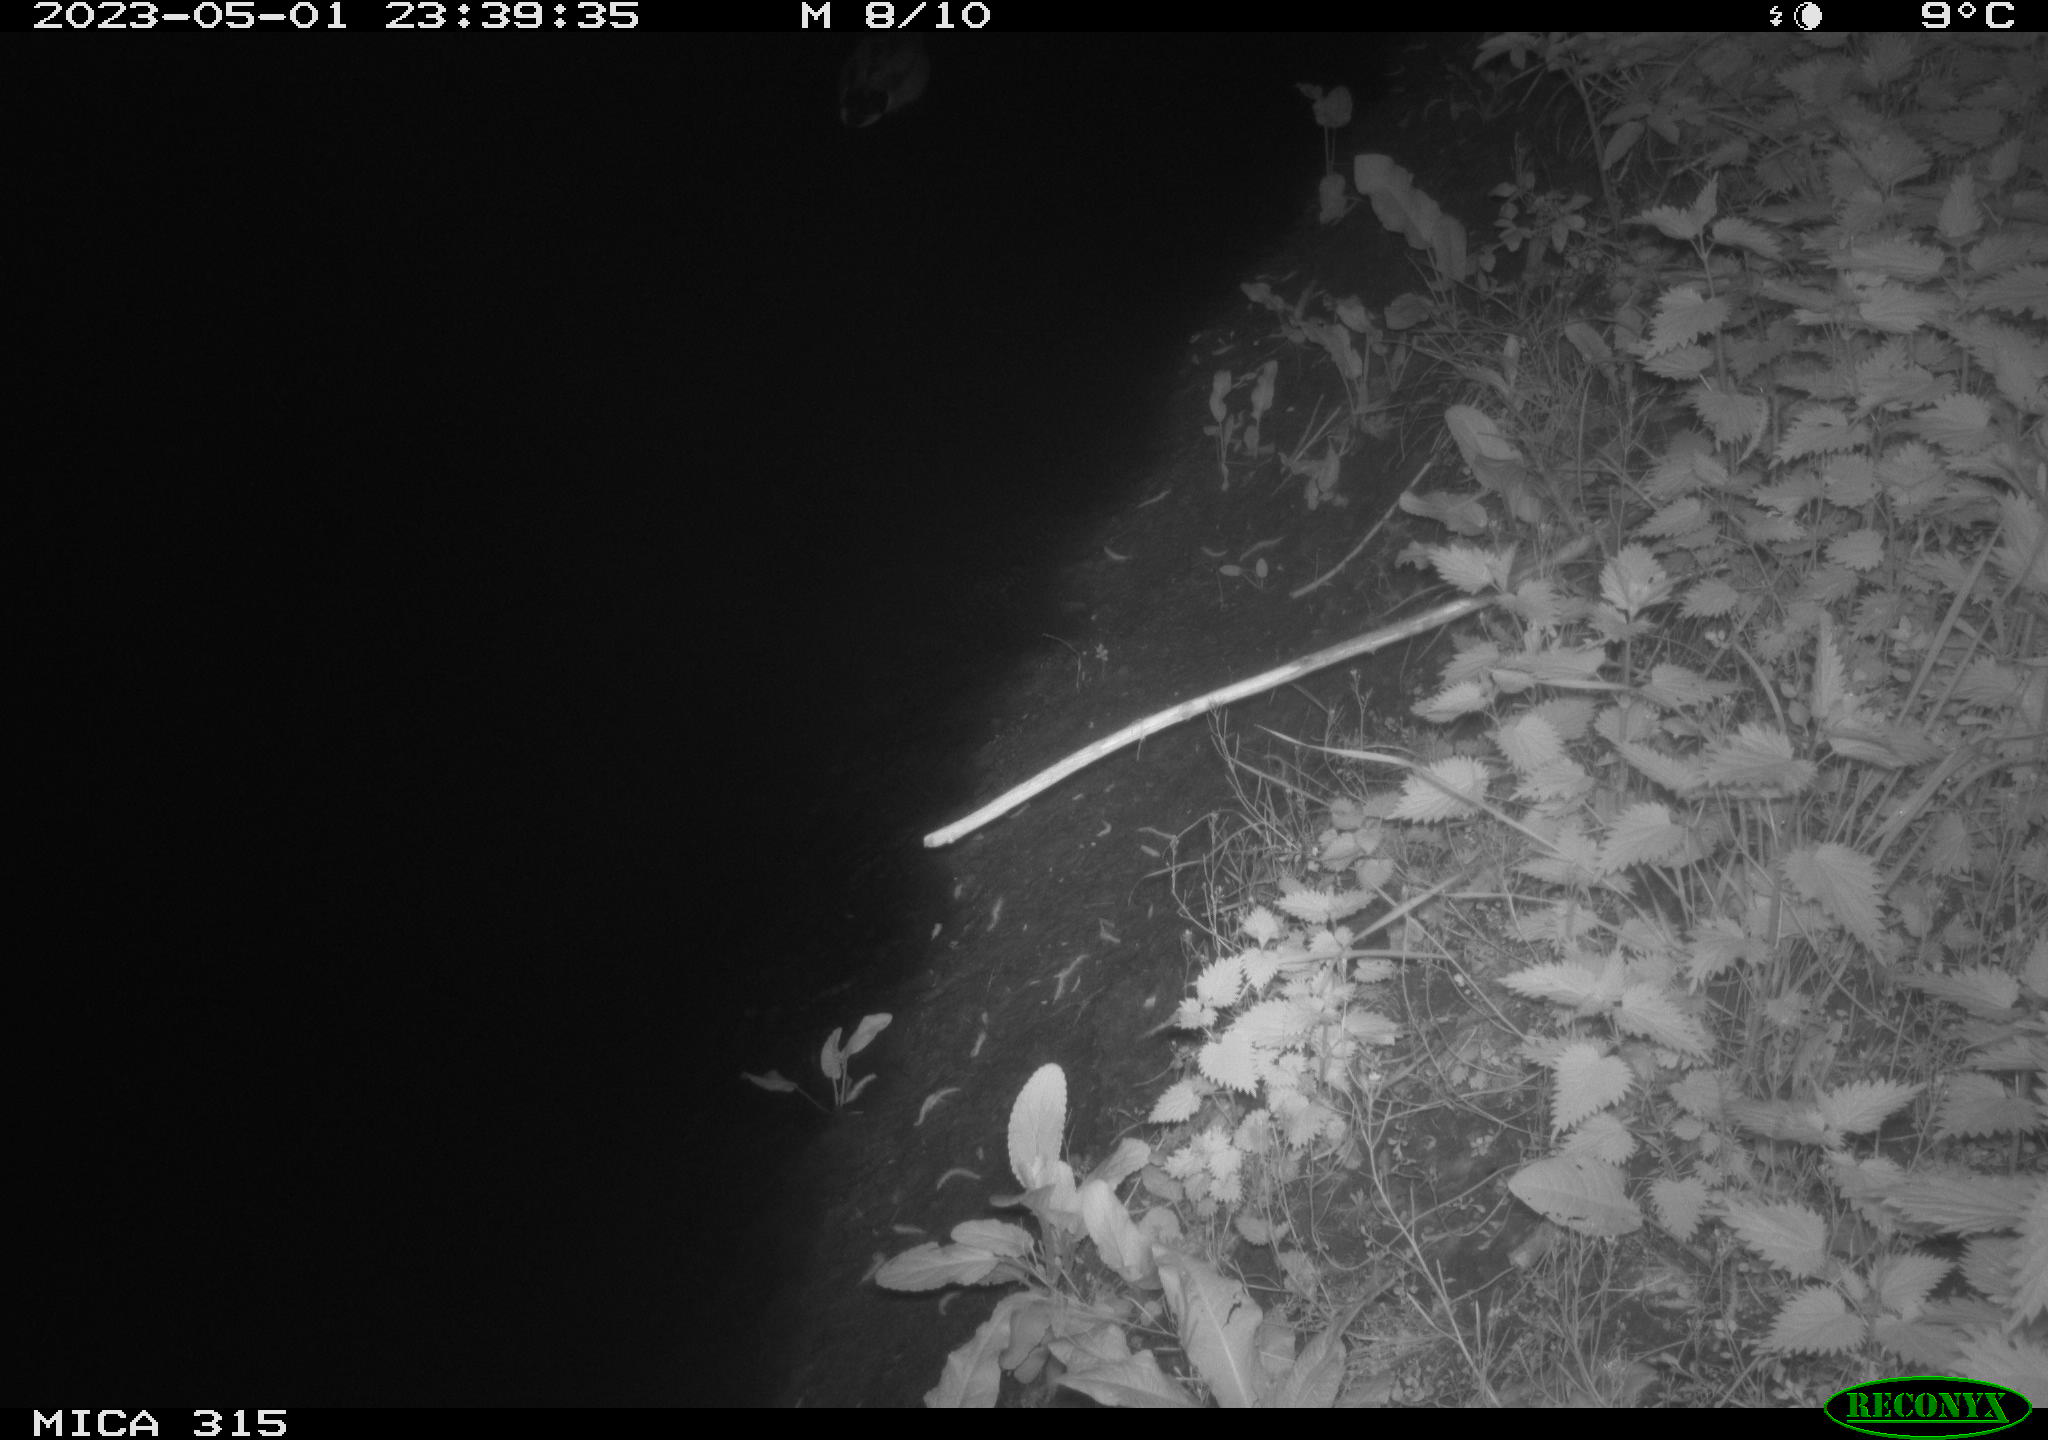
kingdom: Animalia
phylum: Chordata
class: Aves
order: Anseriformes
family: Anatidae
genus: Anas
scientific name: Anas
